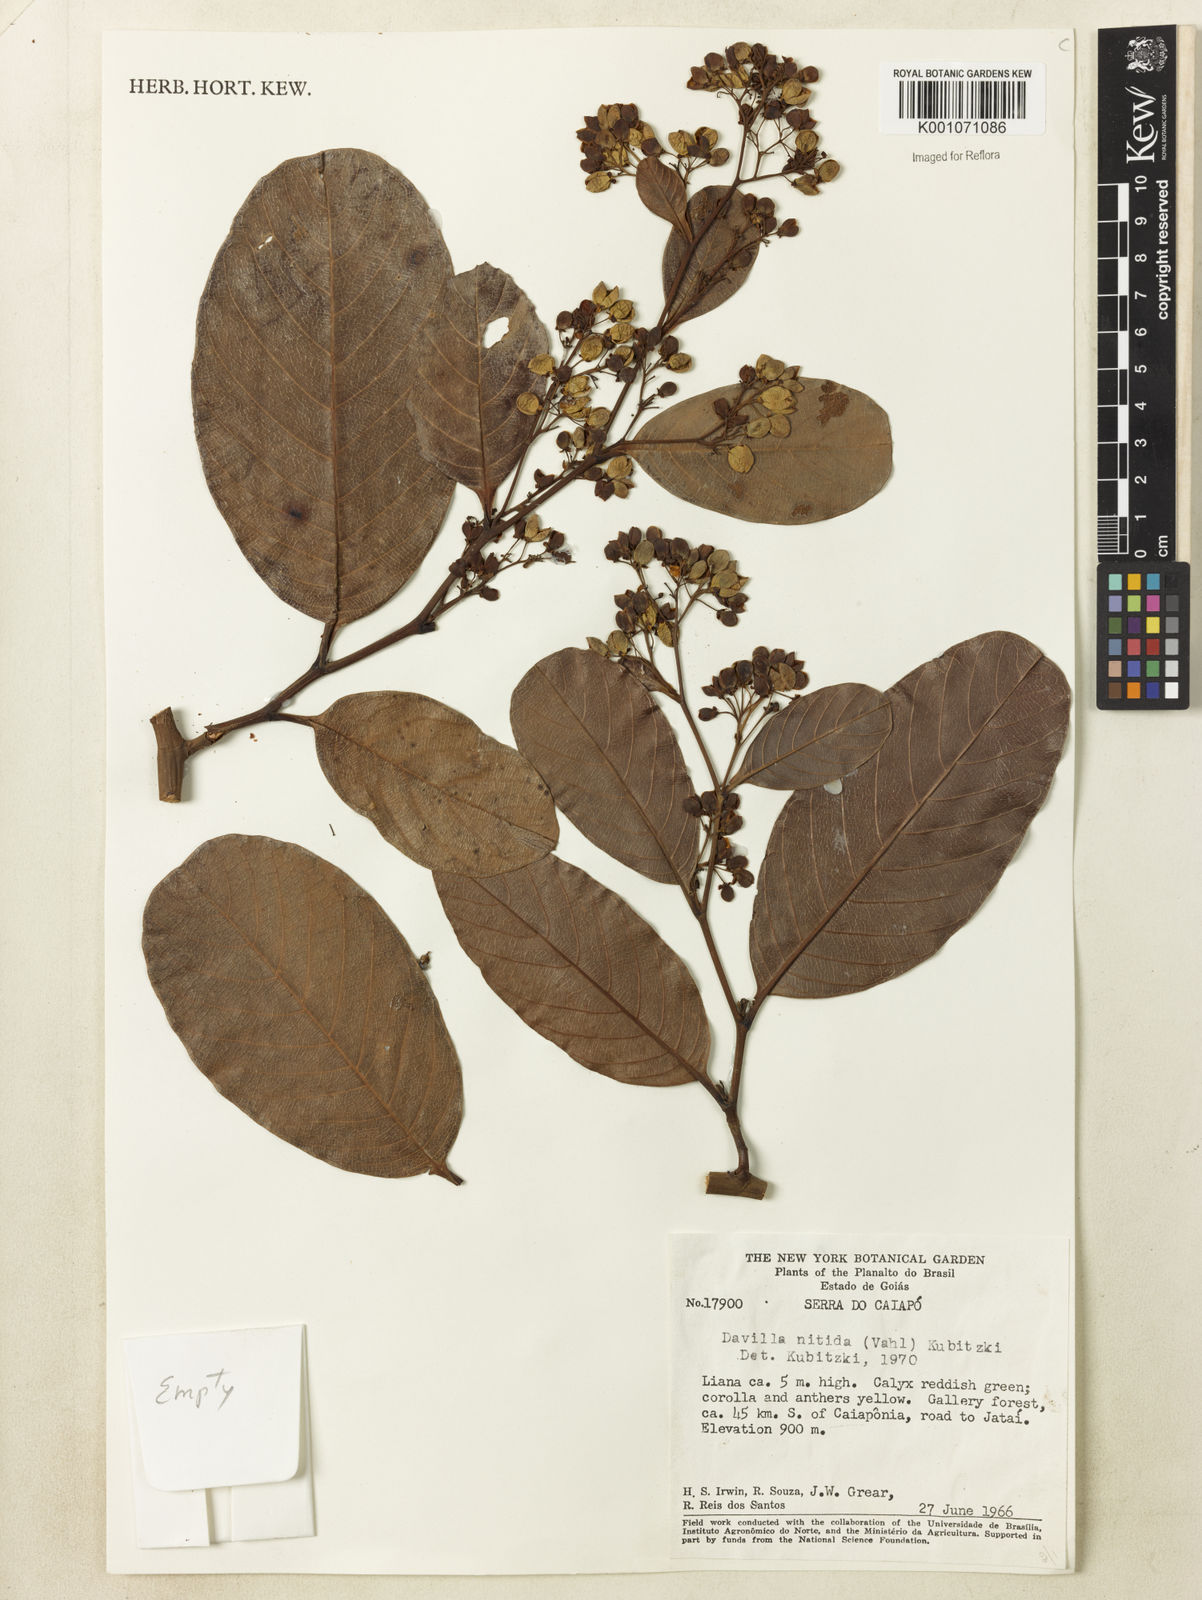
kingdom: Plantae
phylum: Tracheophyta
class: Magnoliopsida
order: Dilleniales
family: Dilleniaceae
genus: Davilla
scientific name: Davilla nitida
